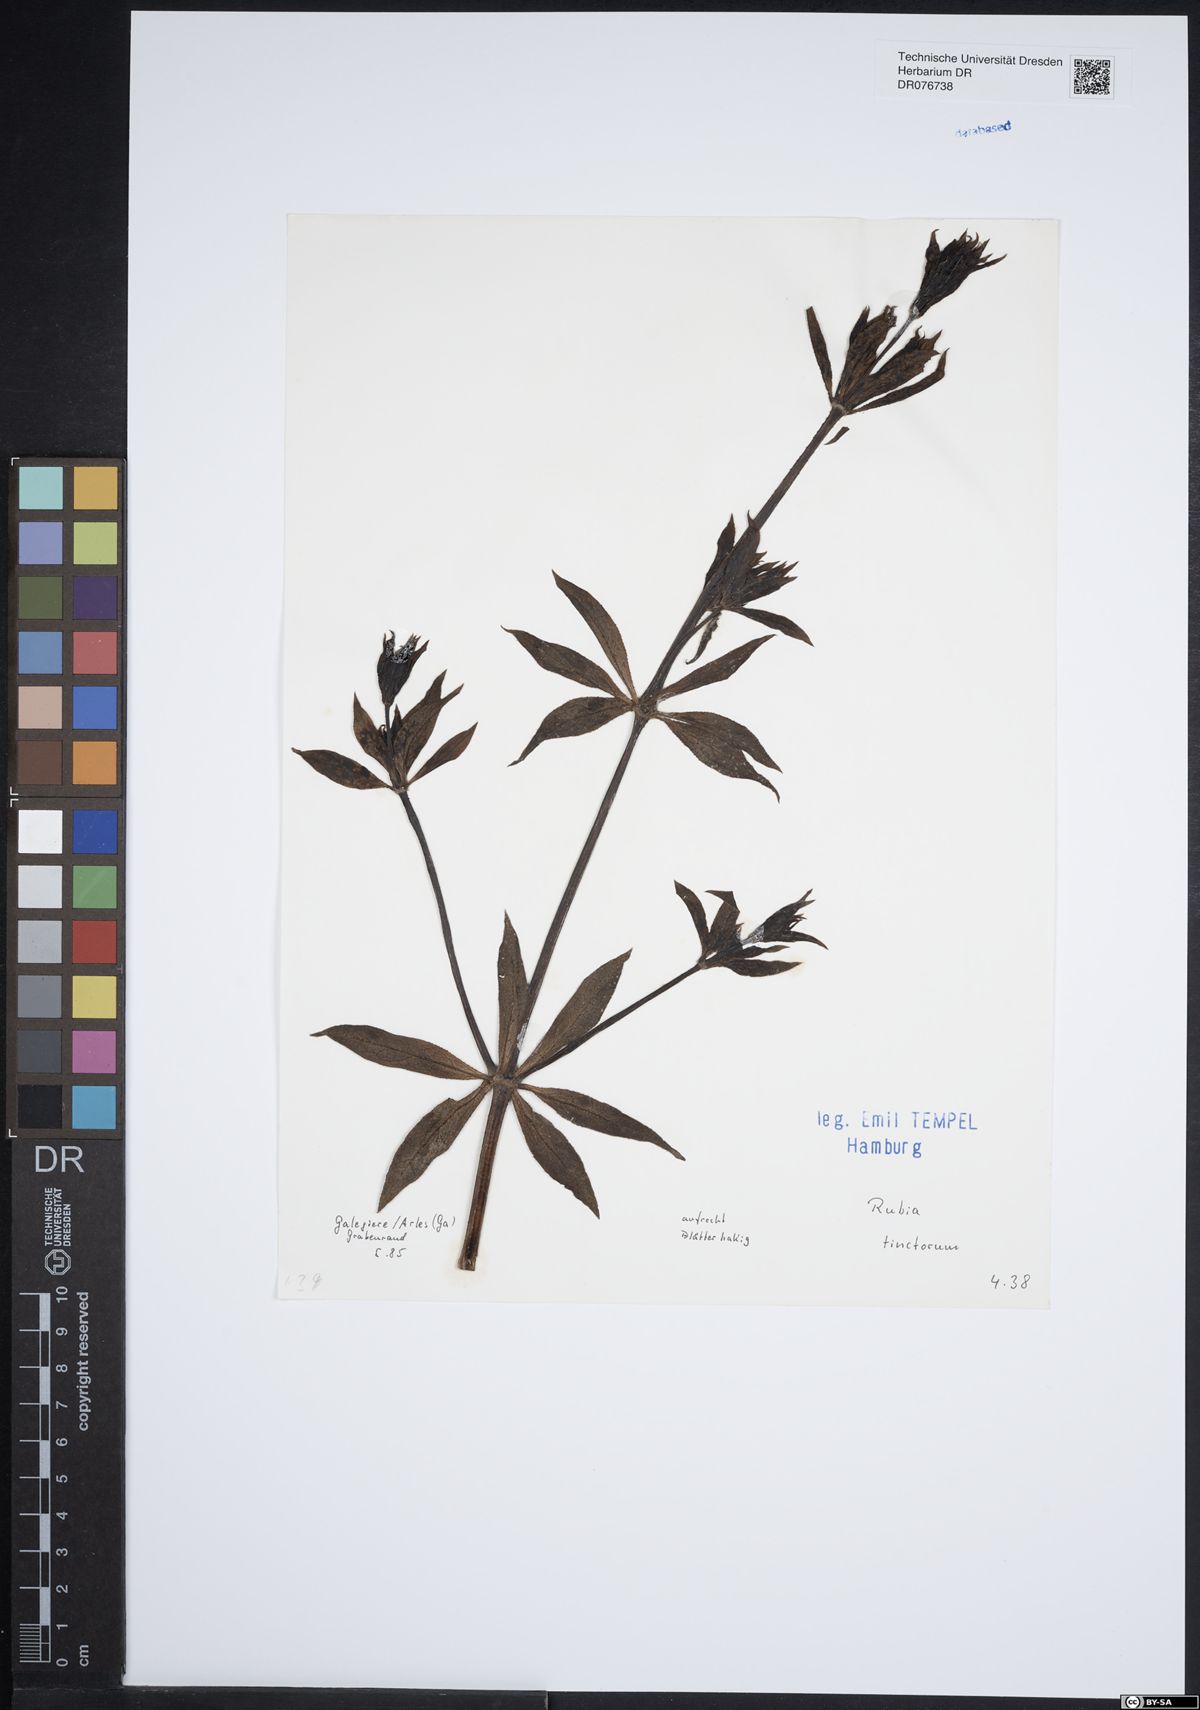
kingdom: Plantae
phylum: Tracheophyta
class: Magnoliopsida
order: Gentianales
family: Rubiaceae
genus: Rubia
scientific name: Rubia tinctorum
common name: Dyer's madder
